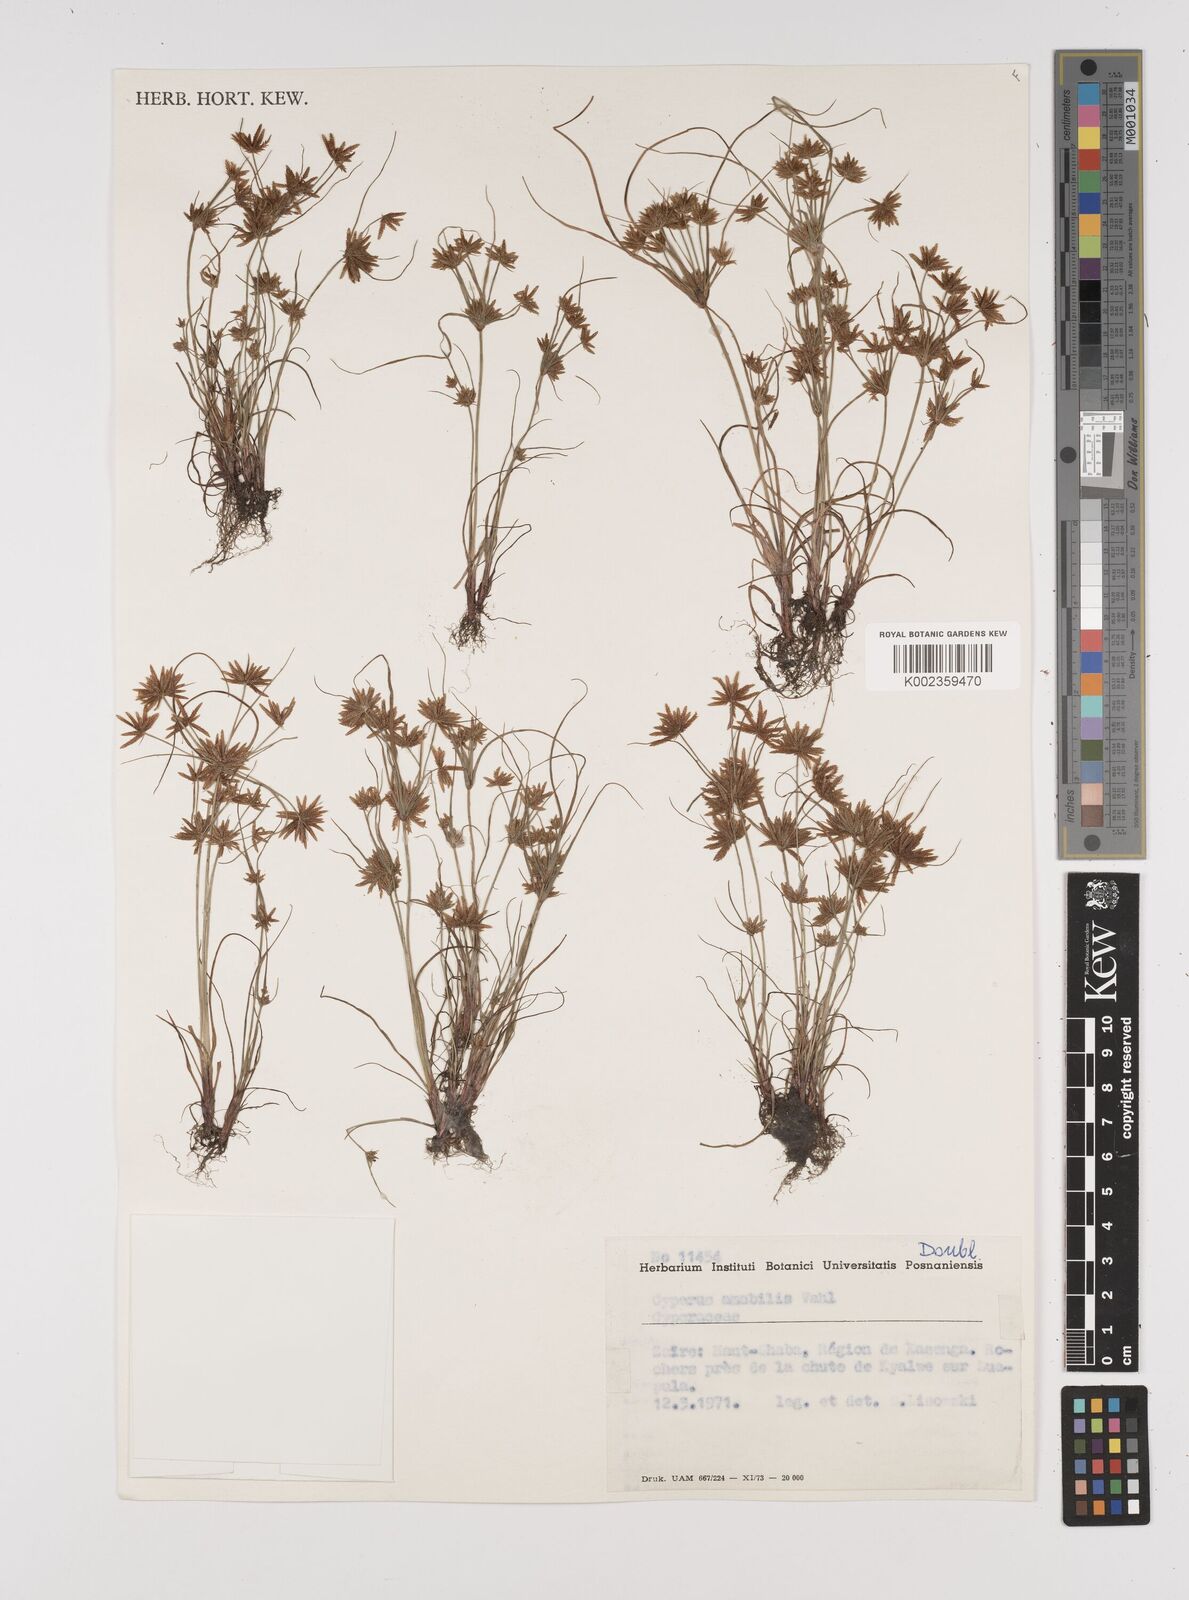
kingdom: Plantae
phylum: Tracheophyta
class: Liliopsida
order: Poales
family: Cyperaceae
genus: Cyperus
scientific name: Cyperus amabilis
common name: Foothill flat sedge
